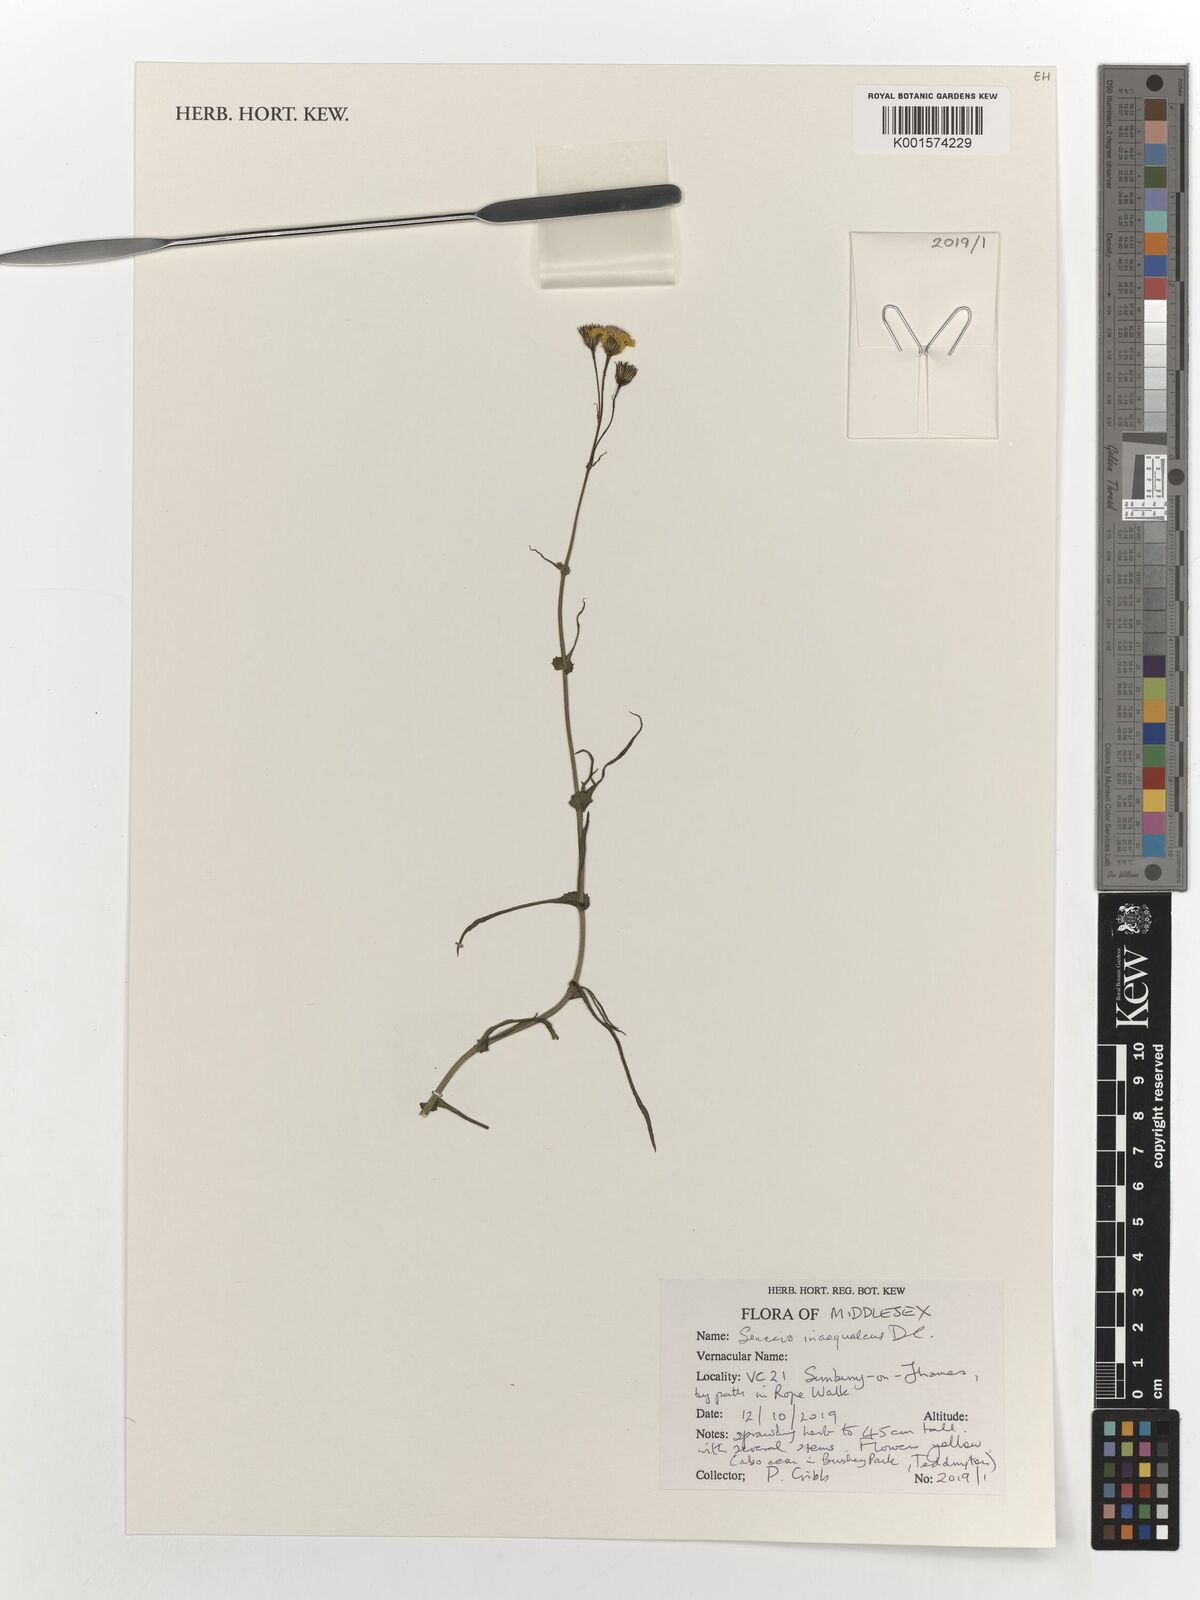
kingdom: Plantae
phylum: Tracheophyta
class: Magnoliopsida
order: Asterales
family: Asteraceae
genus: Senecio
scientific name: Senecio inaequidens
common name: Narrow-leaved ragwort
